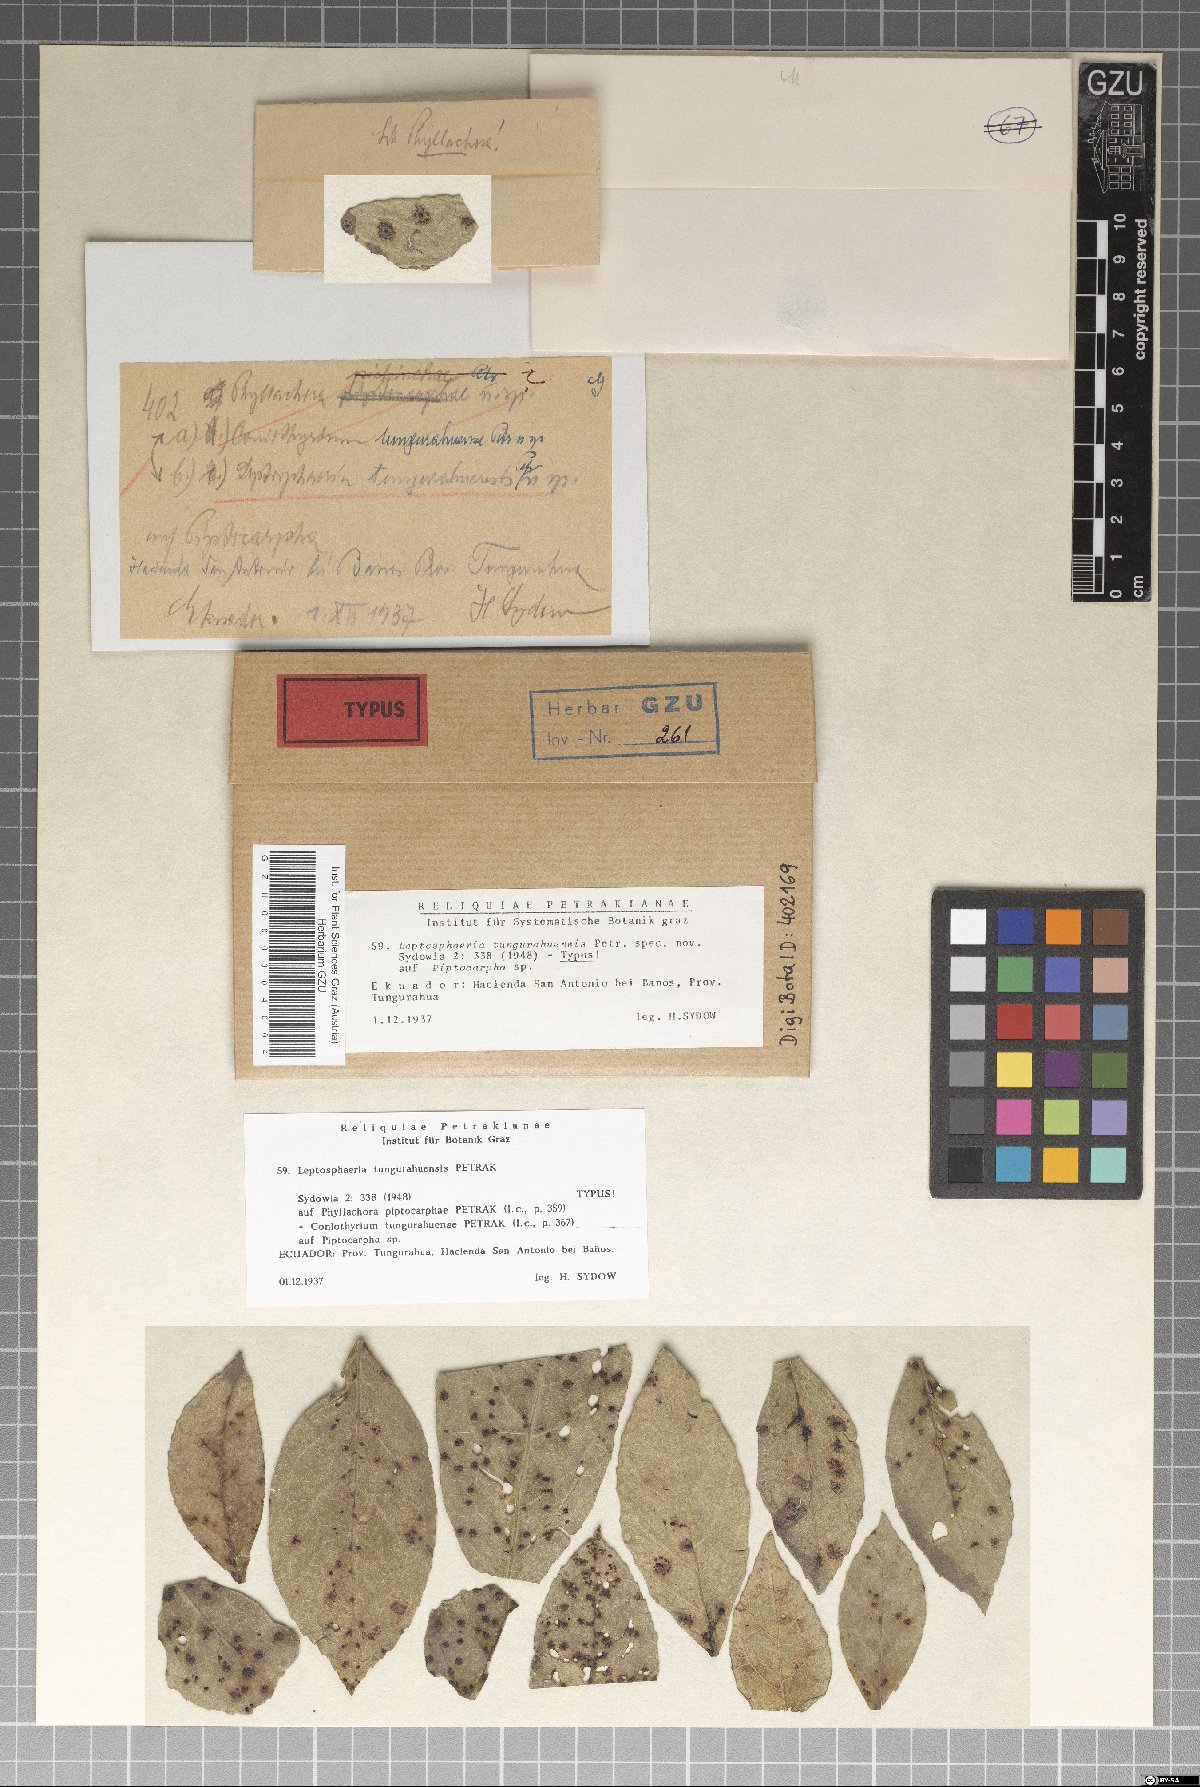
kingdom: Fungi
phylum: Ascomycota
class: Dothideomycetes
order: Pleosporales
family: Leptosphaeriaceae
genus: Leptosphaeria
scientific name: Leptosphaeria tungurahuensis
